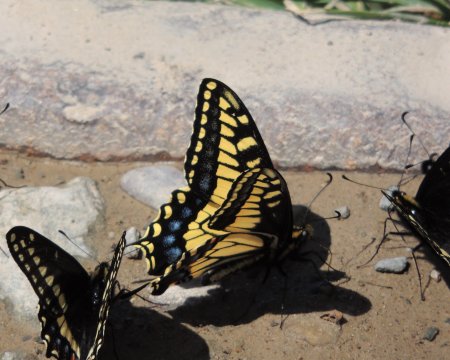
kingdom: Animalia
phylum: Arthropoda
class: Insecta
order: Lepidoptera
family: Papilionidae
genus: Papilio
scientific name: Papilio zelicaon
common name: Anise Swallowtail
